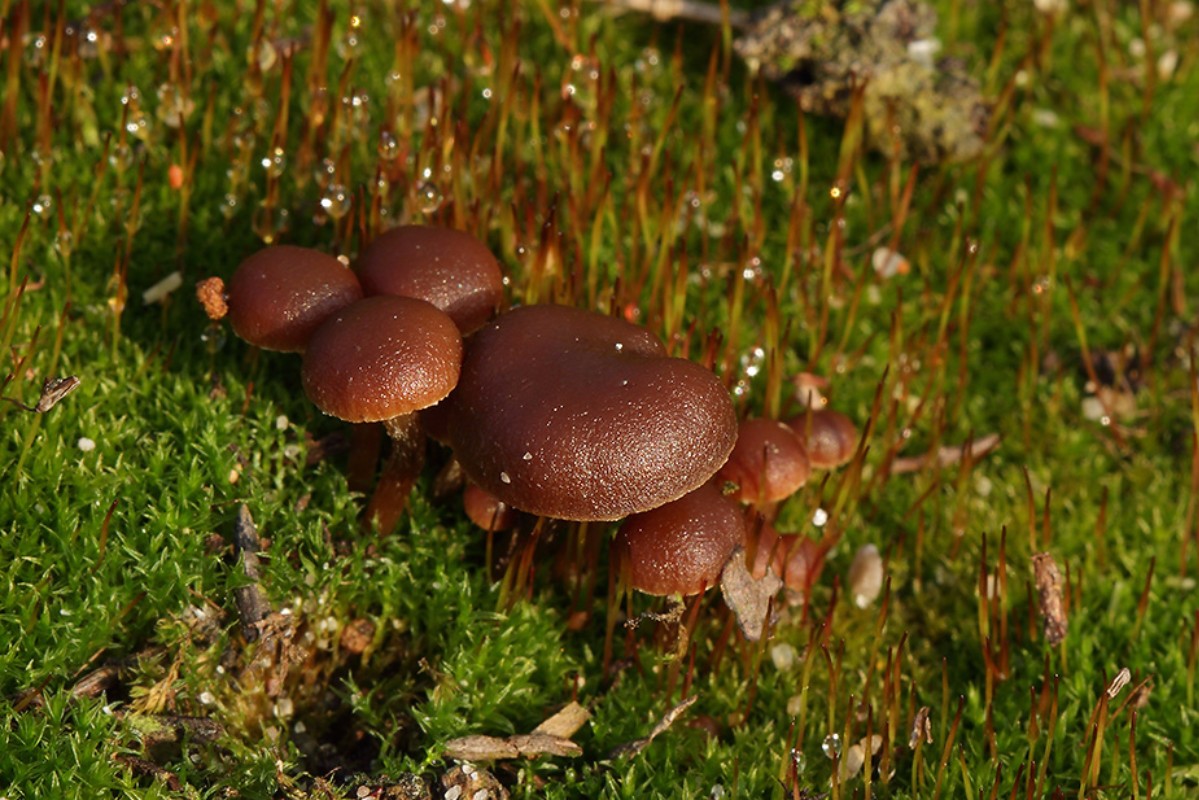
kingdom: Fungi
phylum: Basidiomycota
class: Agaricomycetes
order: Agaricales
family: Strophariaceae
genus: Deconica
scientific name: Deconica montana
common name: rødbrun stråhat
